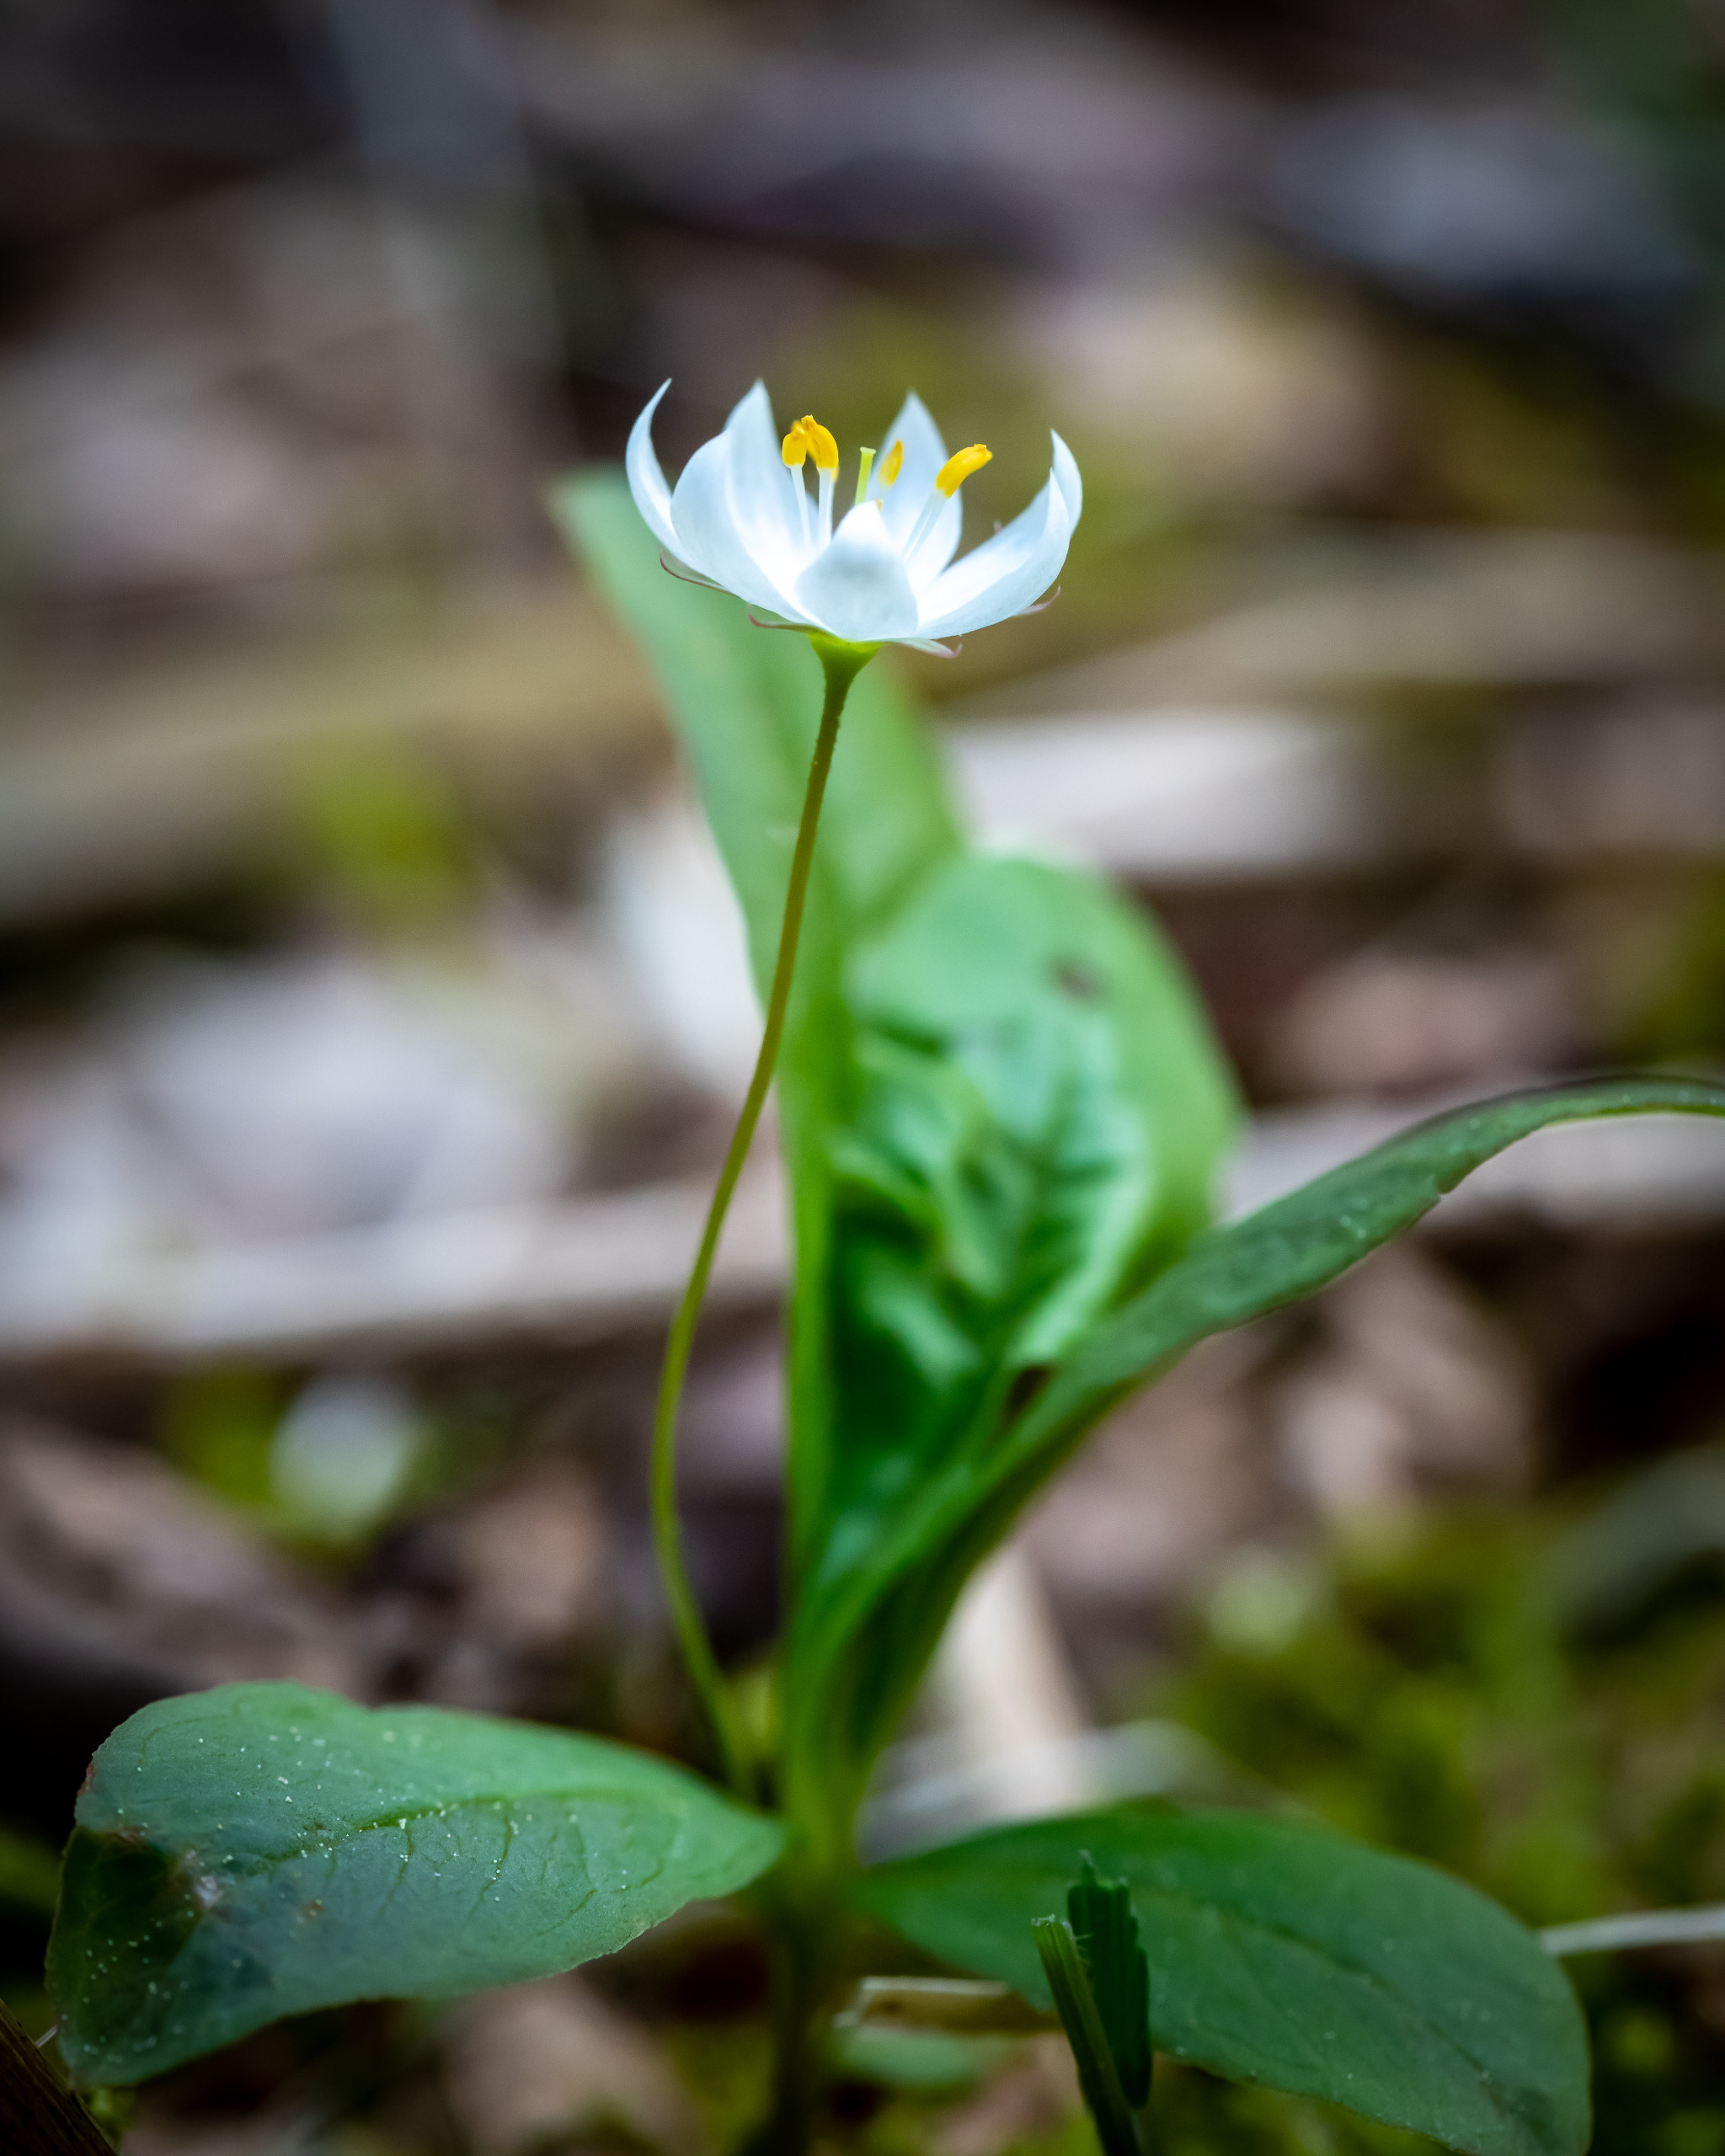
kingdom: Plantae
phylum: Tracheophyta
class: Magnoliopsida
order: Ericales
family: Primulaceae
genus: Lysimachia
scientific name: Lysimachia europaea
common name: Skovstjerne
